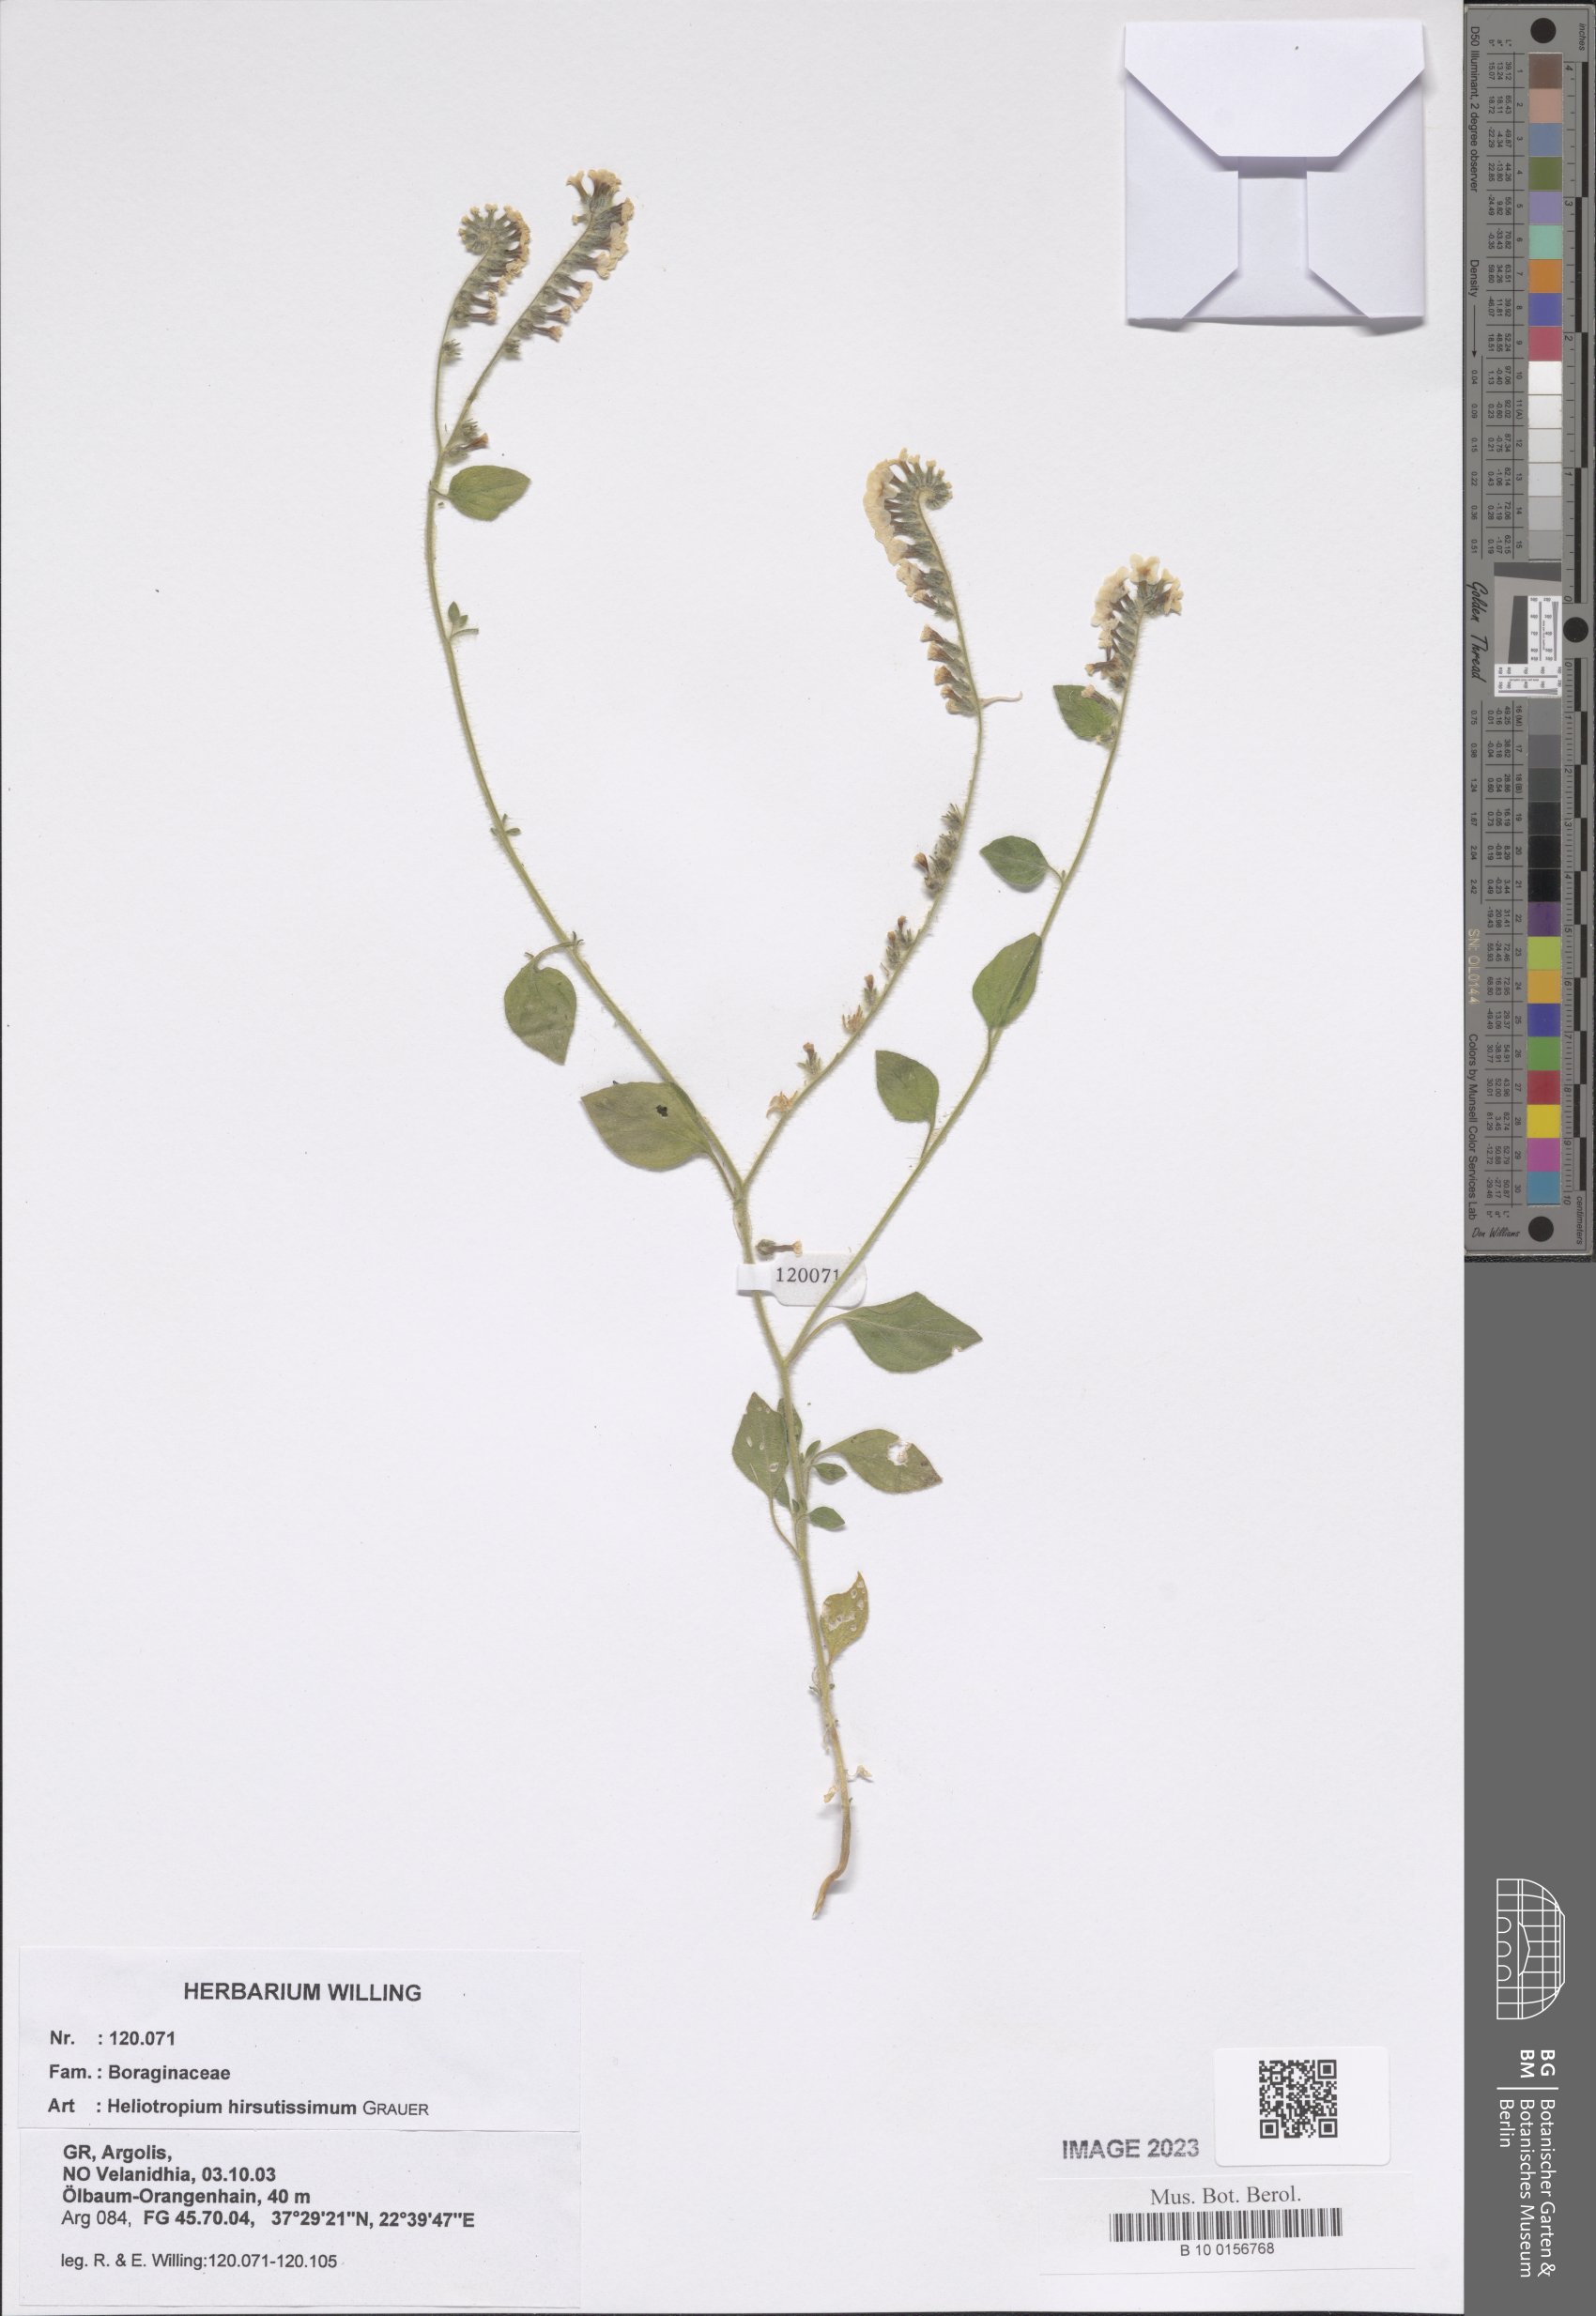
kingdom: Plantae
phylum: Tracheophyta
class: Magnoliopsida
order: Boraginales
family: Heliotropiaceae
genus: Heliotropium
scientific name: Heliotropium hirsutissimum
